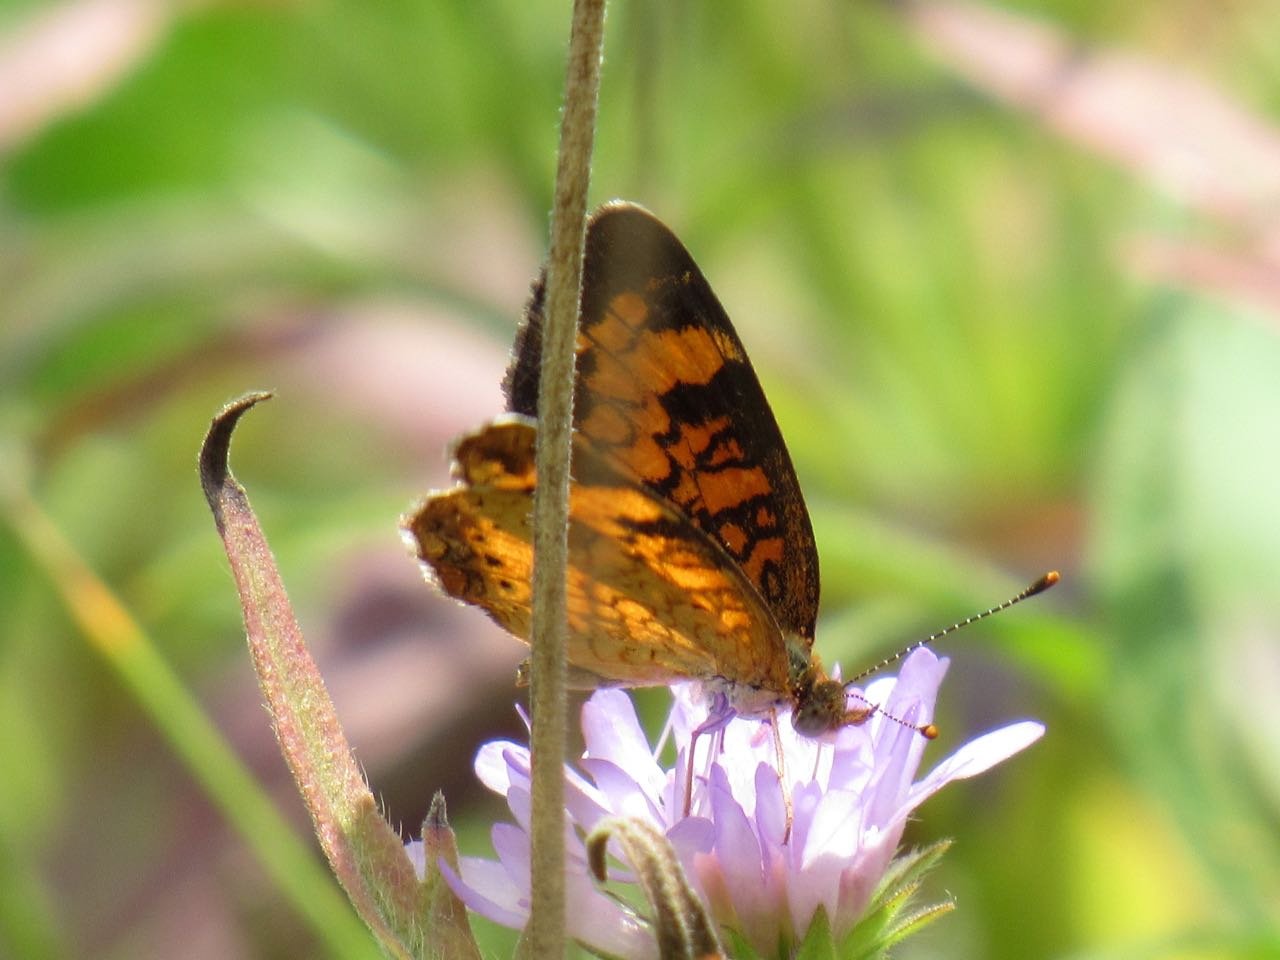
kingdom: Animalia
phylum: Arthropoda
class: Insecta
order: Lepidoptera
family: Nymphalidae
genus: Phyciodes
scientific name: Phyciodes tharos
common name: Pearl Crescent
